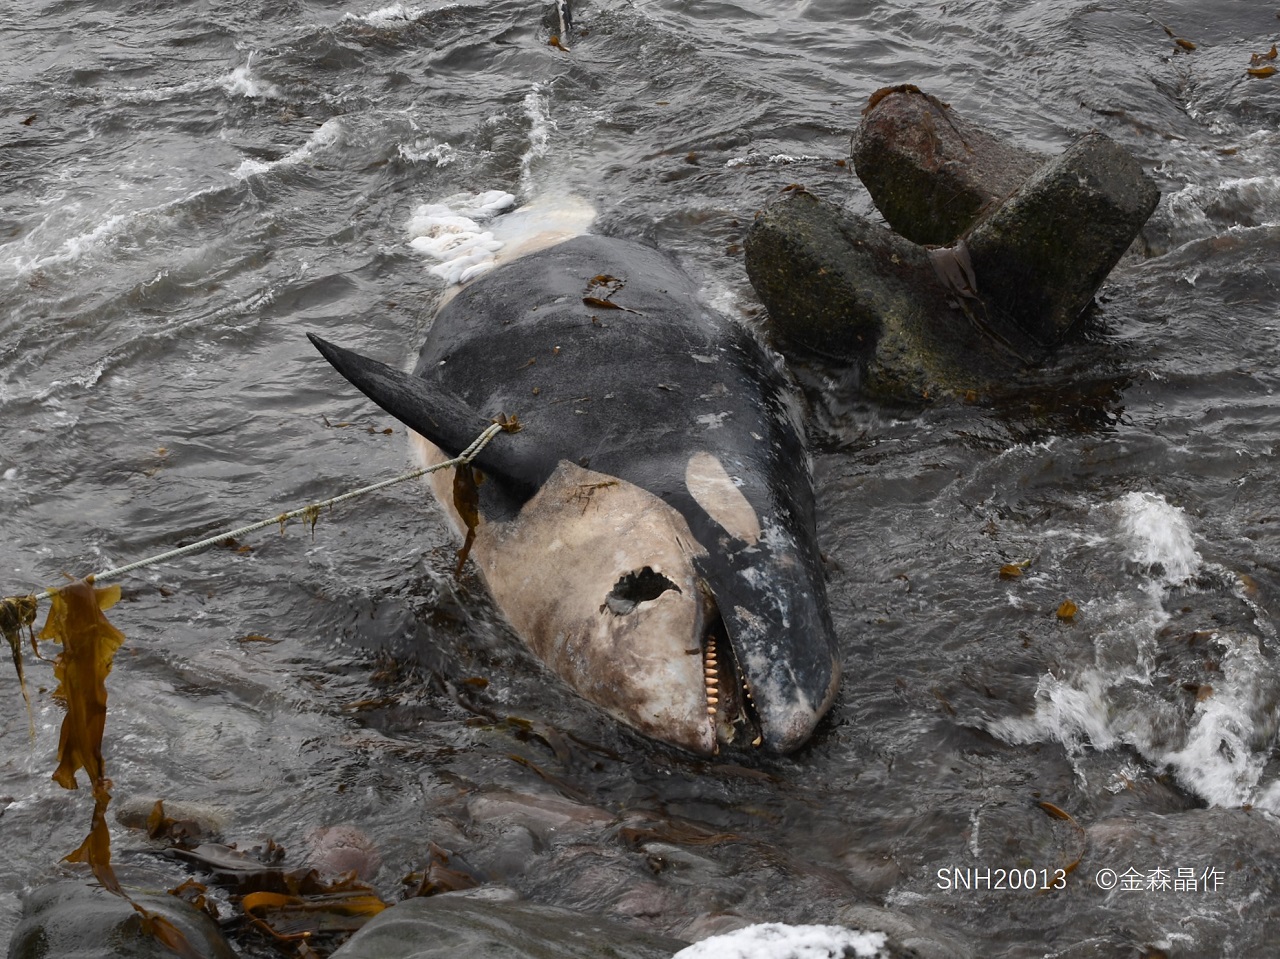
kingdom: Animalia
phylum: Chordata
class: Mammalia
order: Cetacea
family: Delphinidae
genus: Orcinus
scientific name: Orcinus orca
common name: Killer whale
